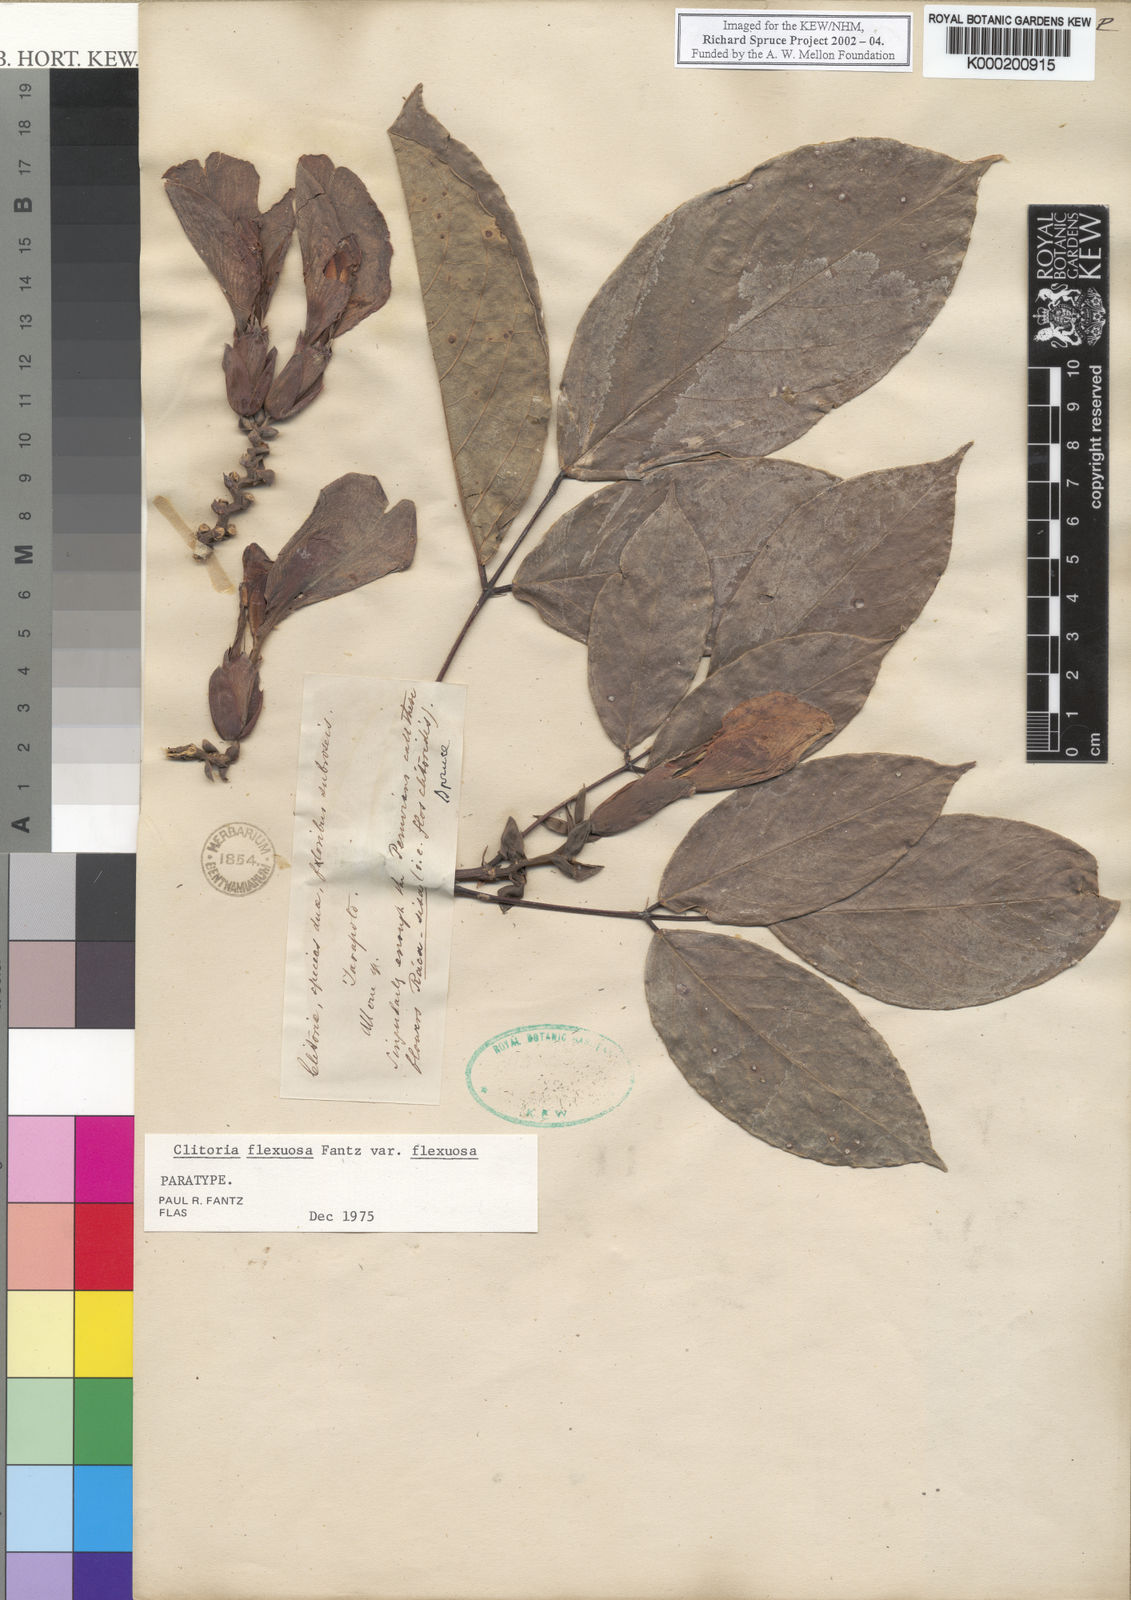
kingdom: Plantae
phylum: Tracheophyta
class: Magnoliopsida
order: Fabales
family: Fabaceae
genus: Clitoria
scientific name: Clitoria flexuosa
